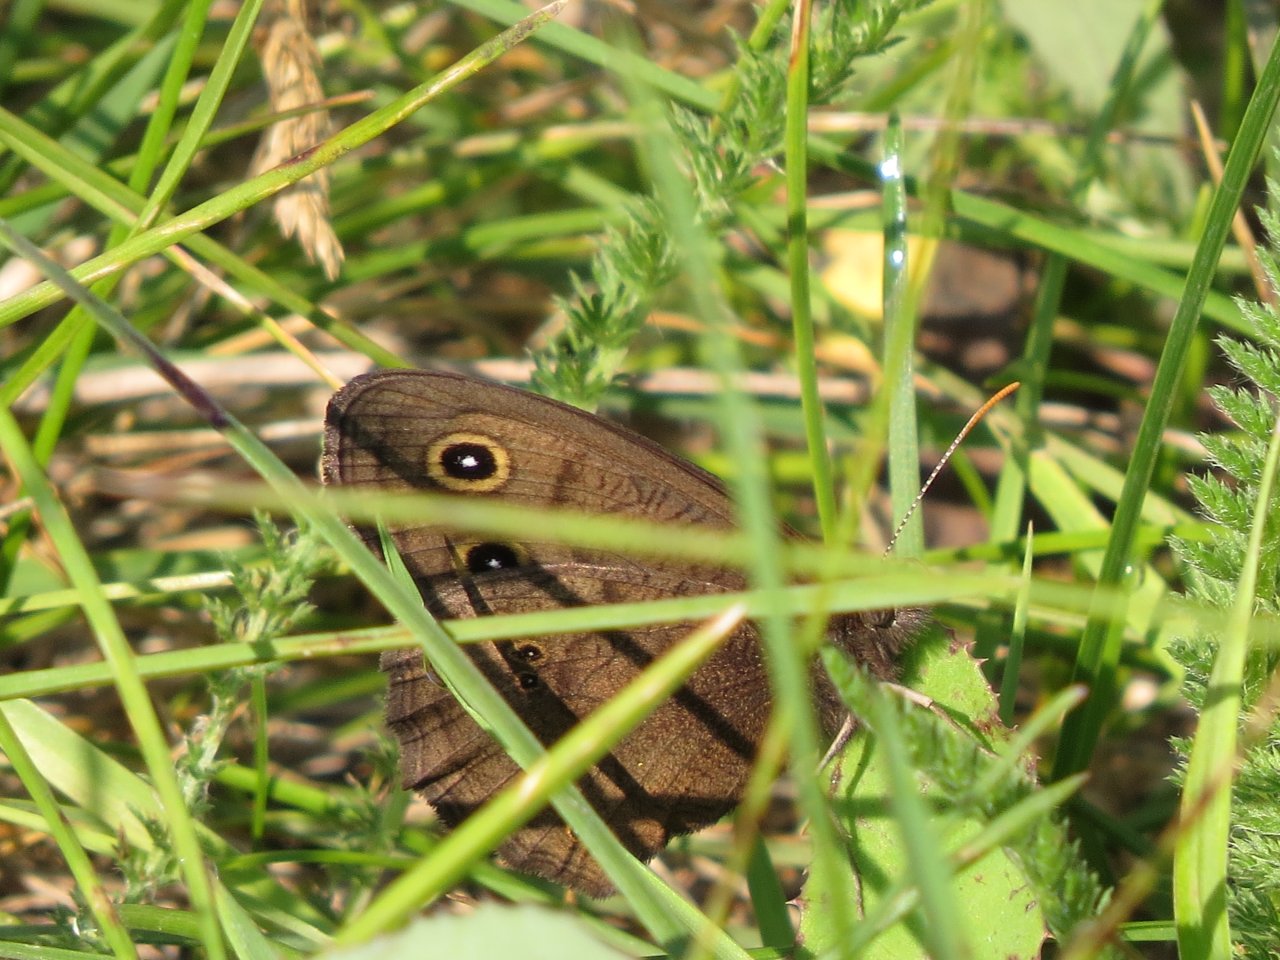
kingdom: Animalia
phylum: Arthropoda
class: Insecta
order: Lepidoptera
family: Nymphalidae
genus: Cercyonis
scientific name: Cercyonis pegala
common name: Common Wood-Nymph
